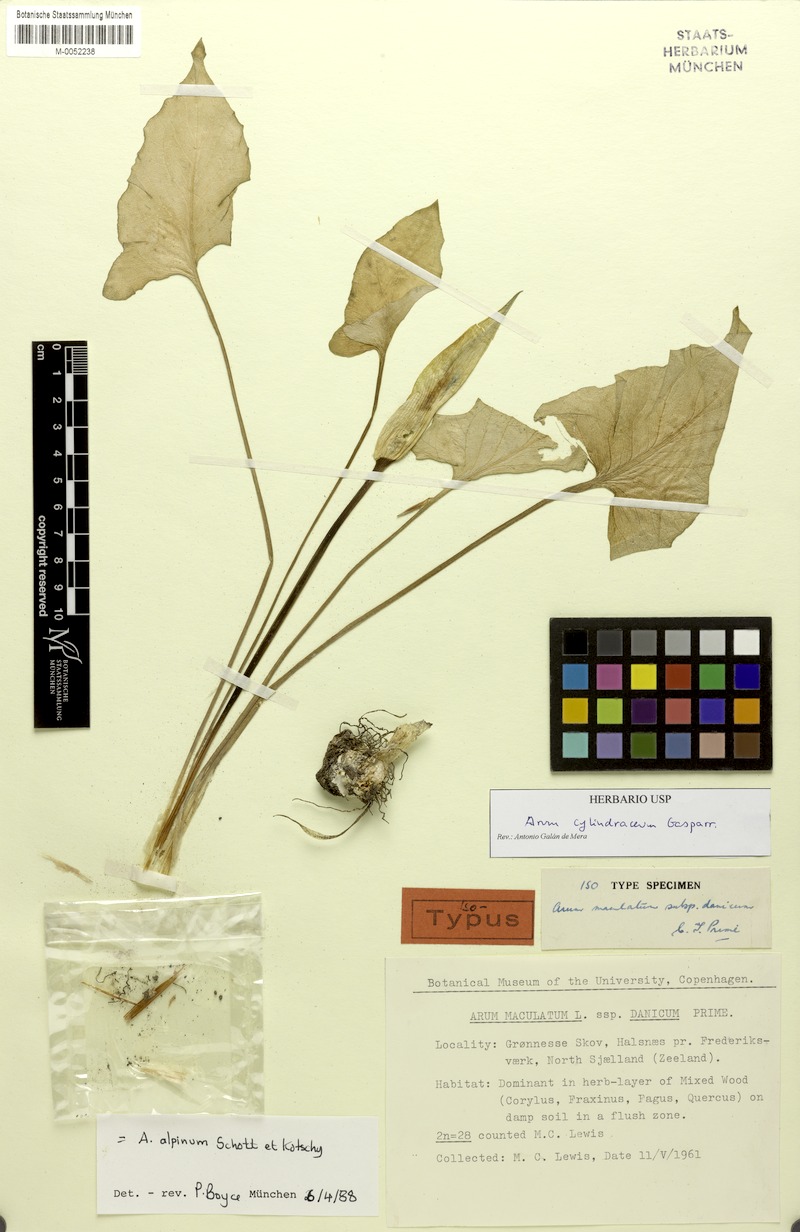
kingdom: Plantae
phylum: Tracheophyta
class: Liliopsida
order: Alismatales
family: Araceae
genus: Arum
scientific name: Arum cylindraceum
